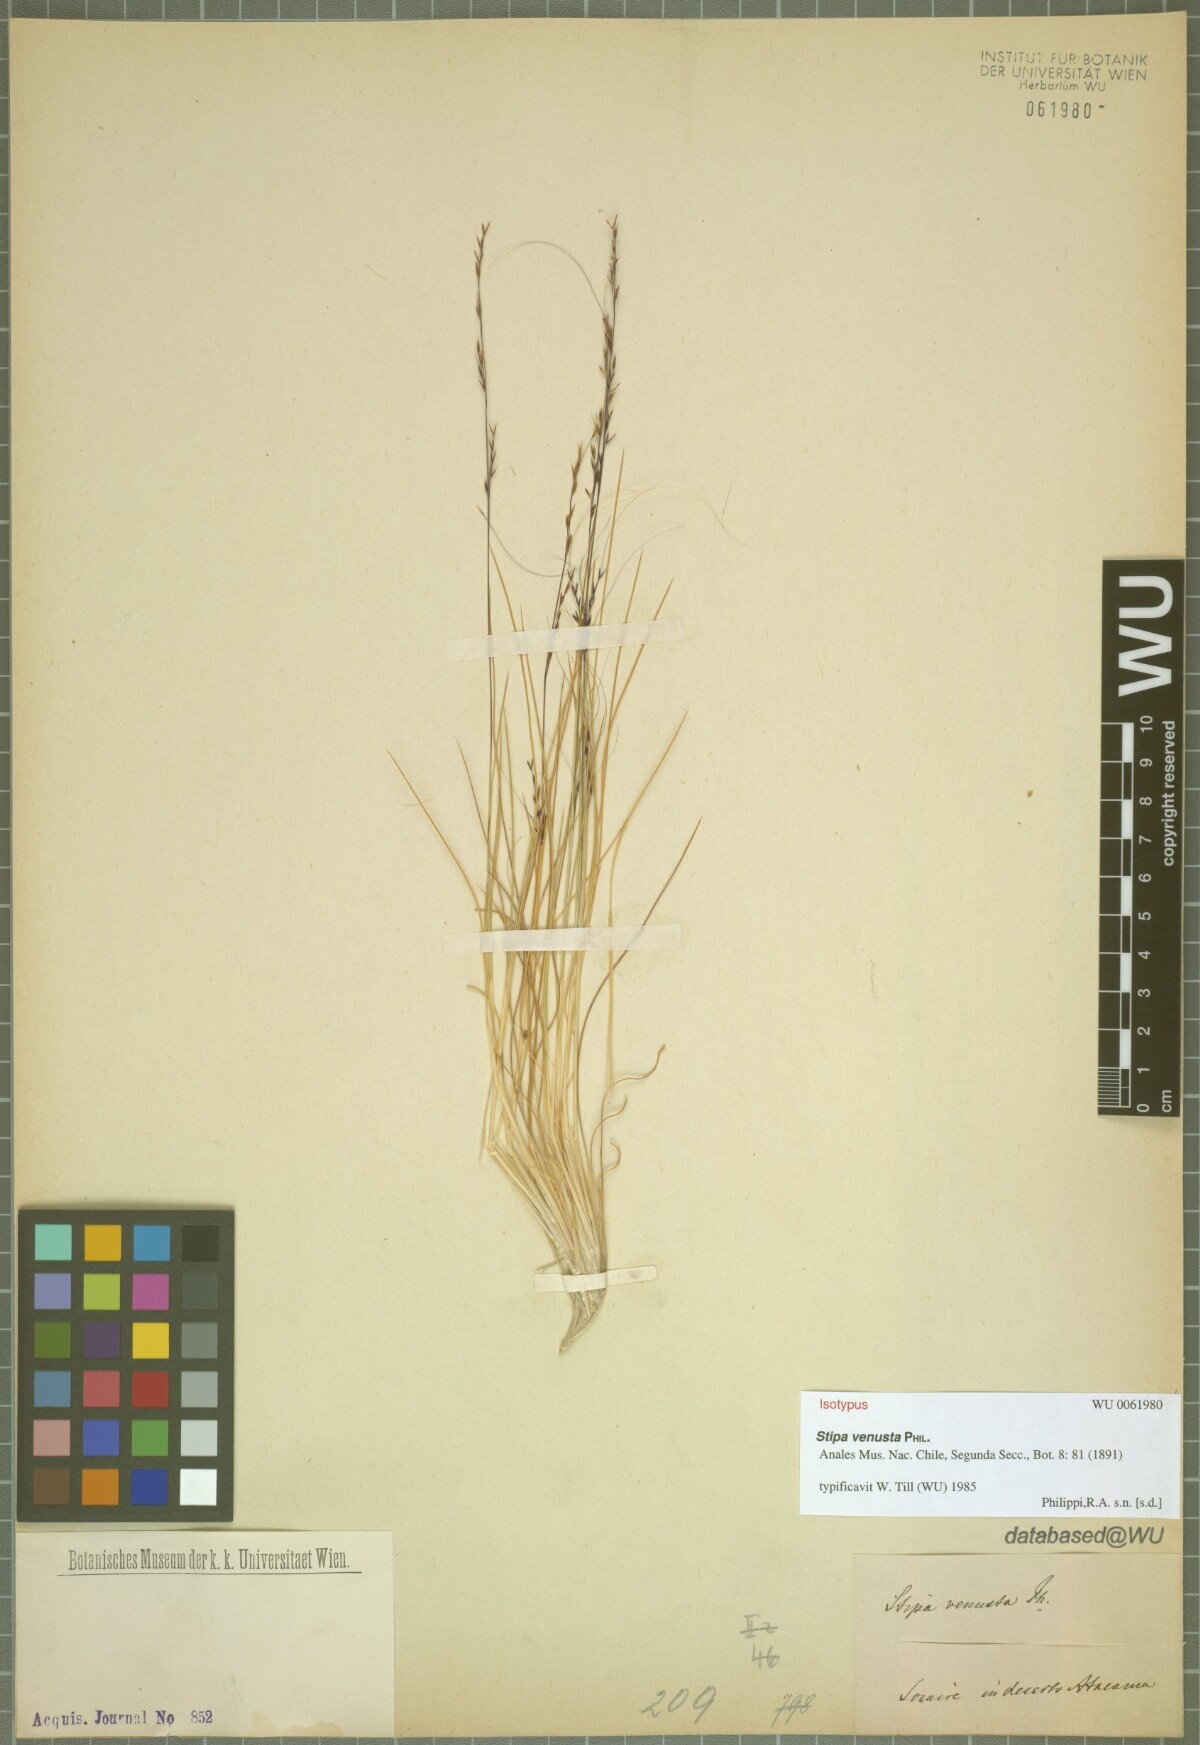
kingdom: Plantae
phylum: Tracheophyta
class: Liliopsida
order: Poales
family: Poaceae
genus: Stipa
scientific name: Stipa venusta
